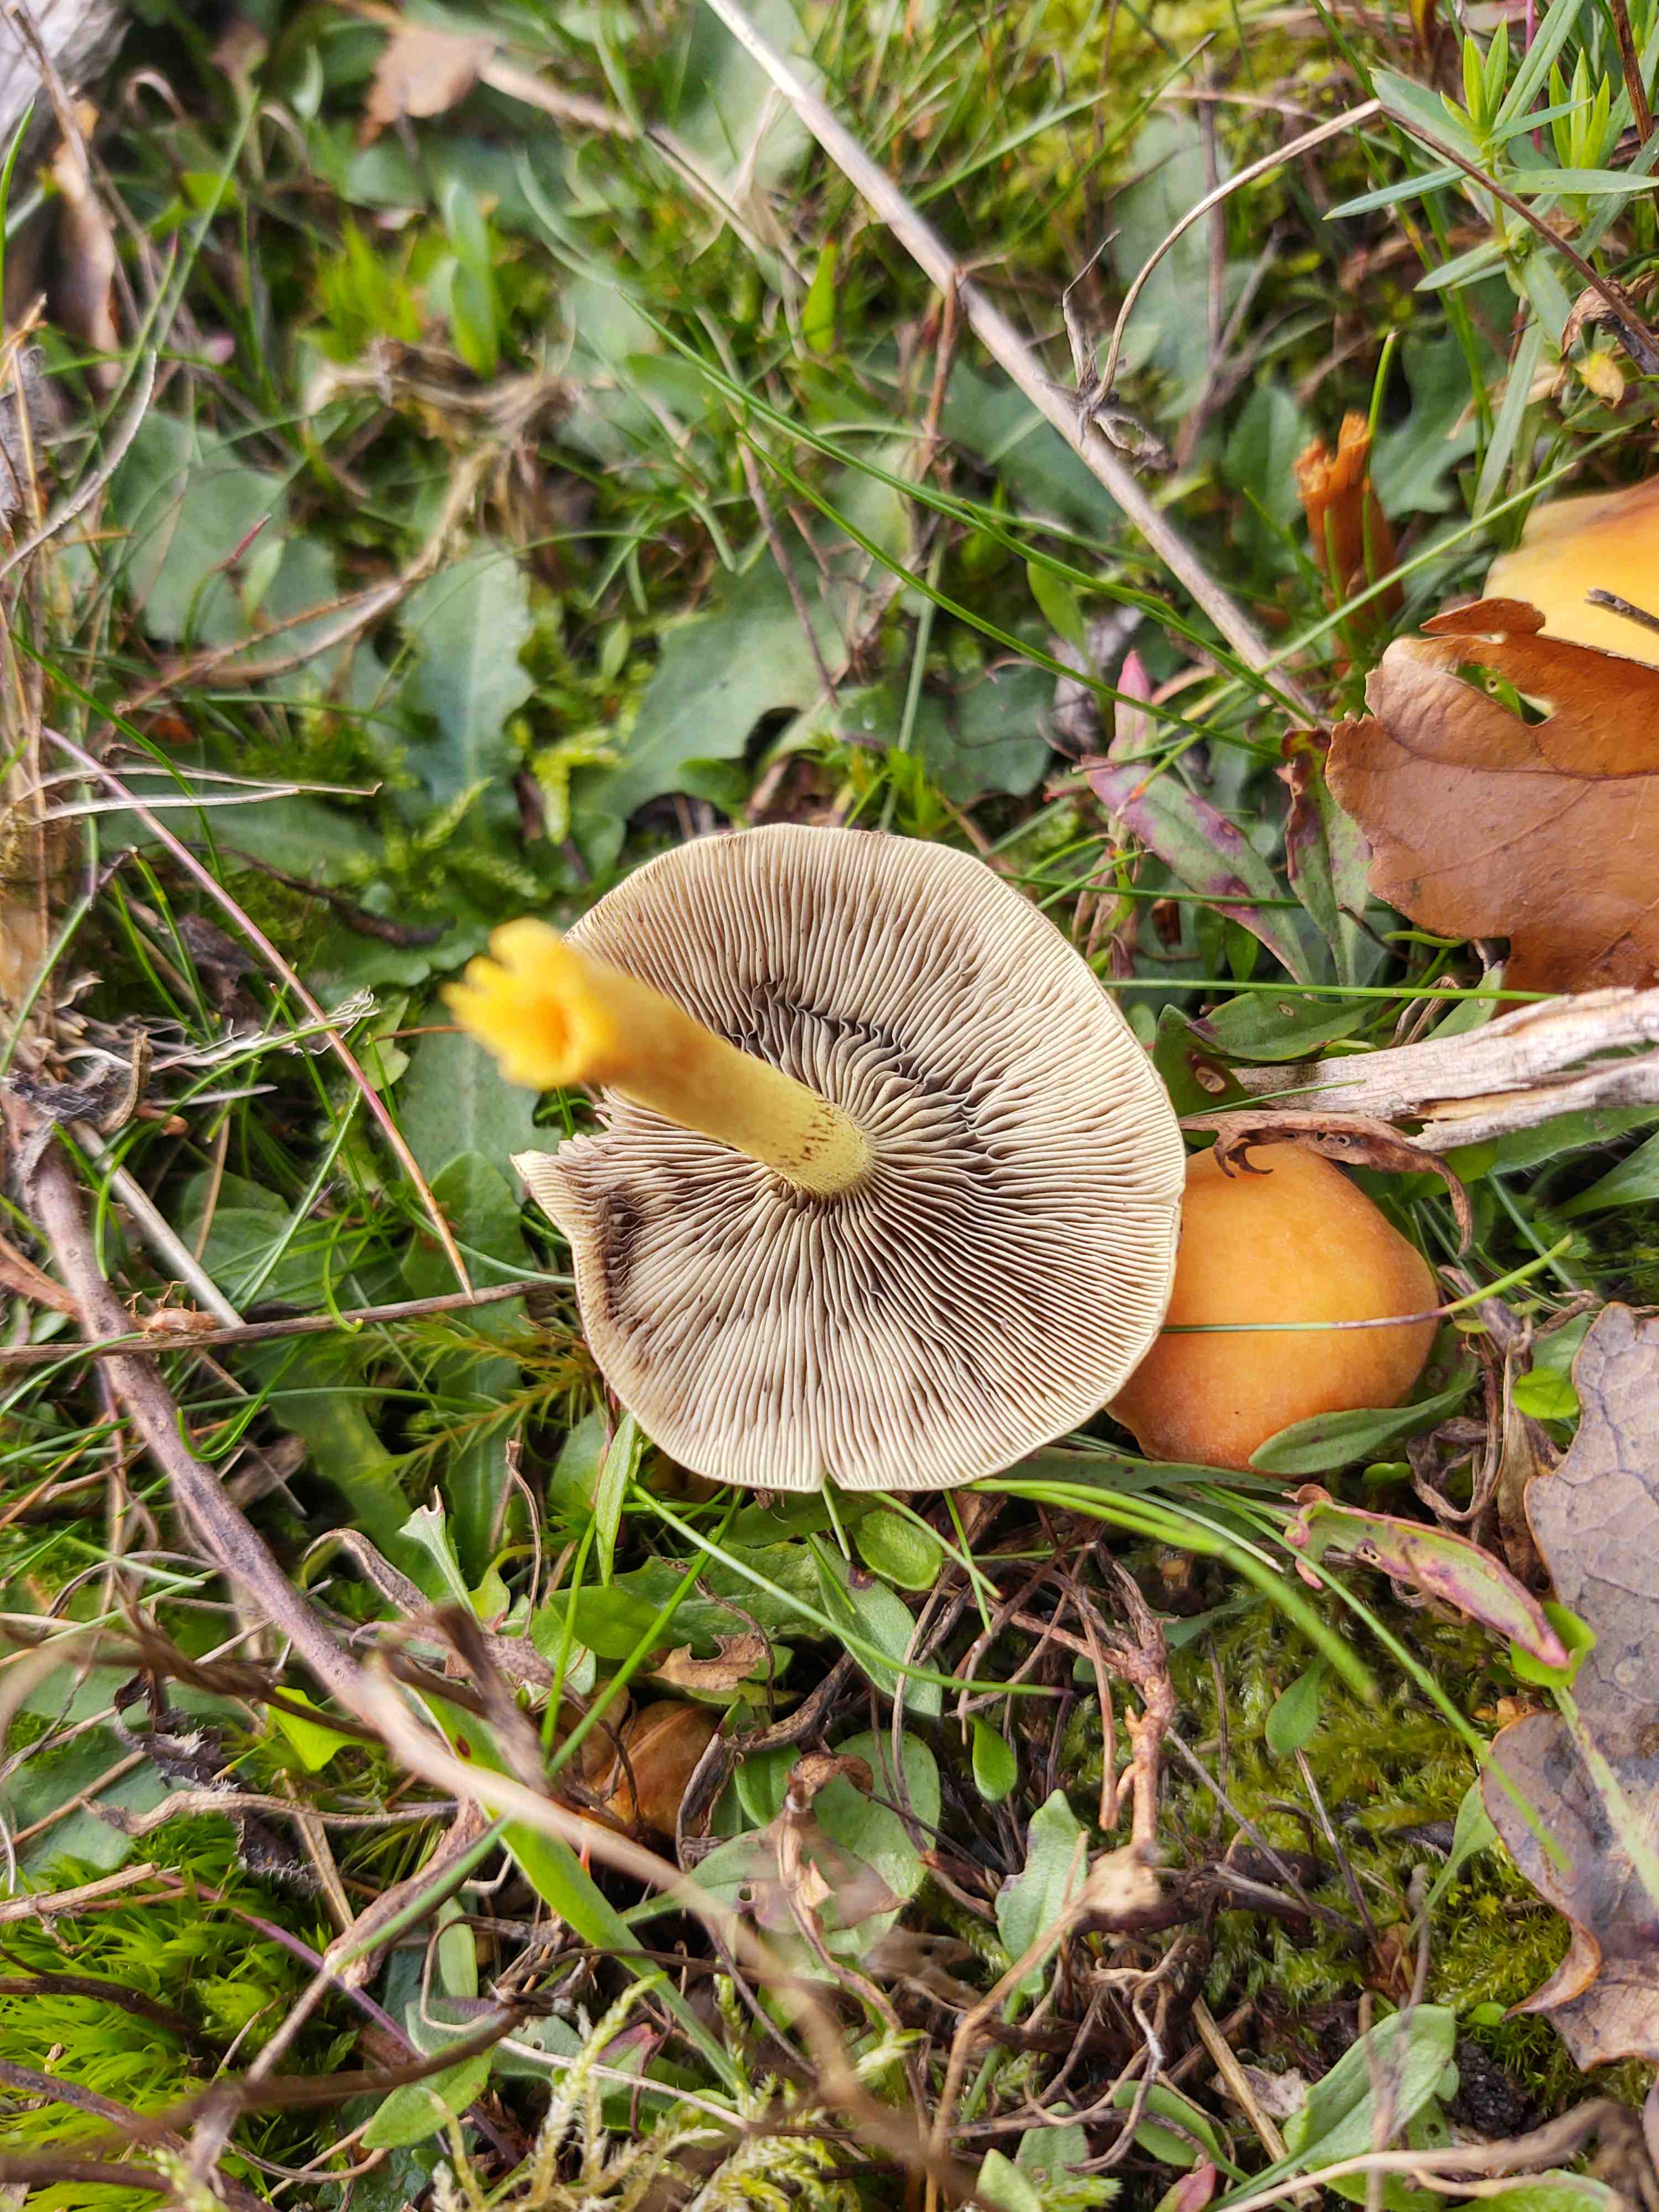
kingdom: Fungi
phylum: Basidiomycota
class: Agaricomycetes
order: Agaricales
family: Strophariaceae
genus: Hypholoma
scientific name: Hypholoma fasciculare
